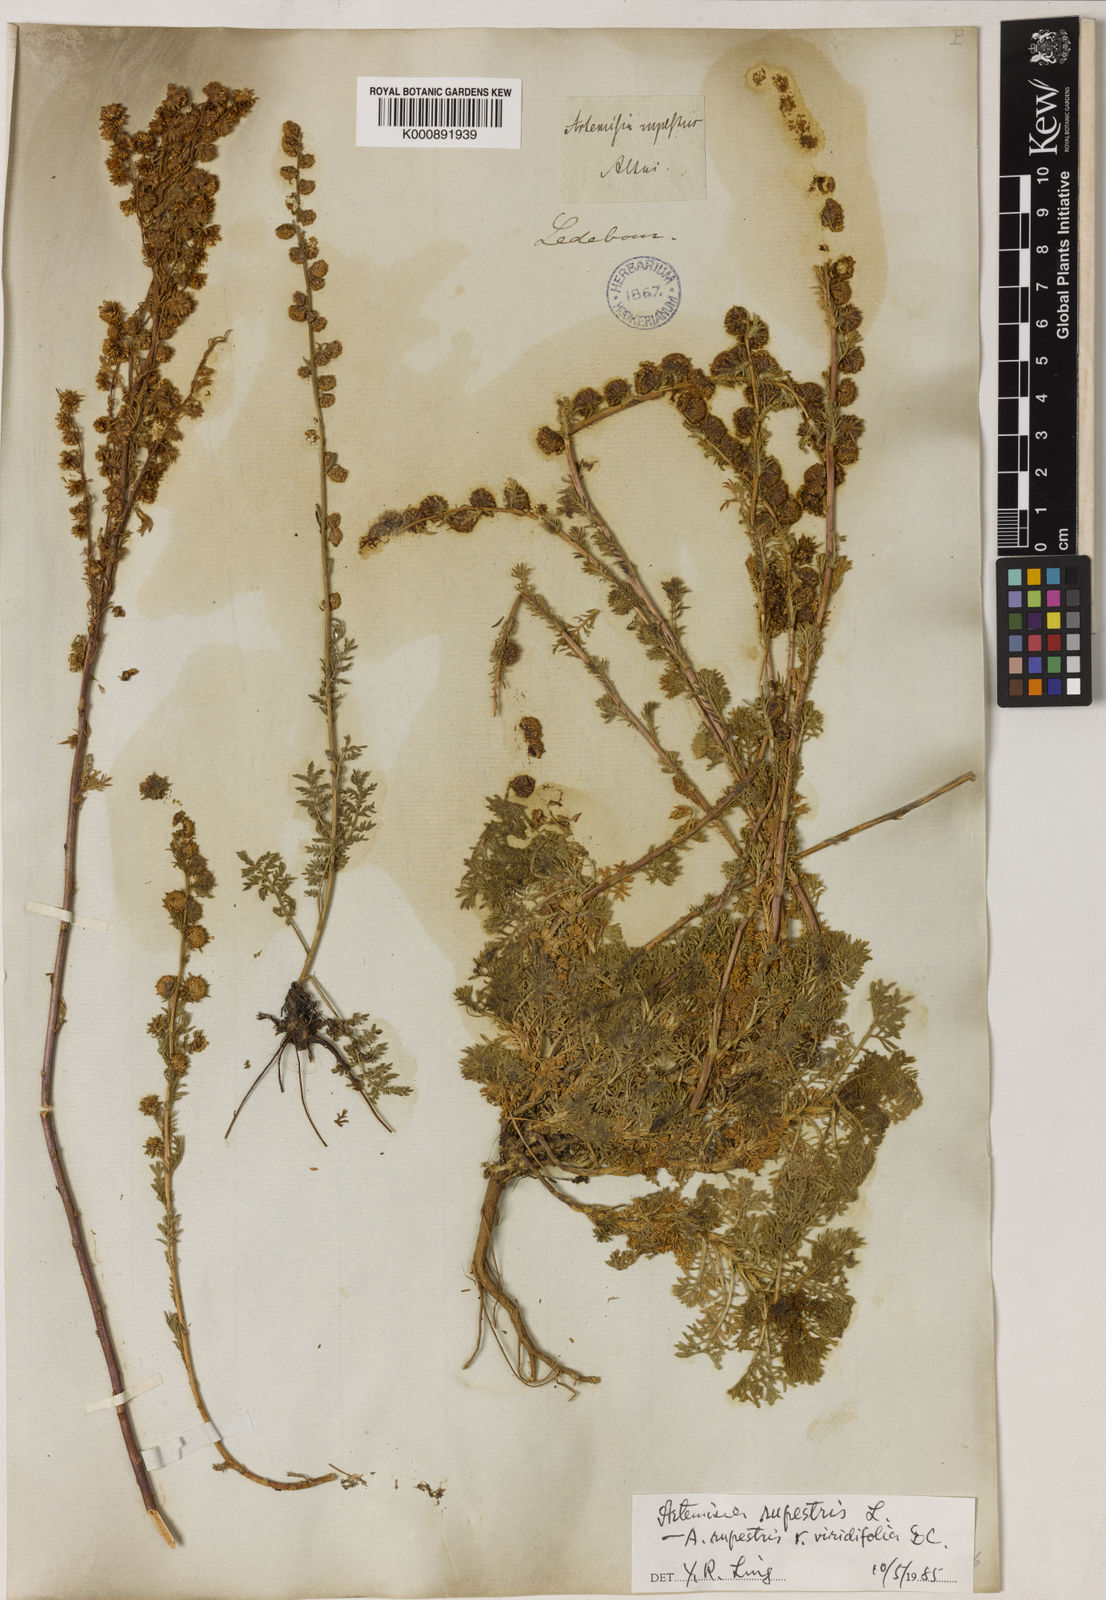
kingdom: Plantae
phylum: Tracheophyta
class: Magnoliopsida
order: Asterales
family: Asteraceae
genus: Artemisia
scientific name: Artemisia rupestris
